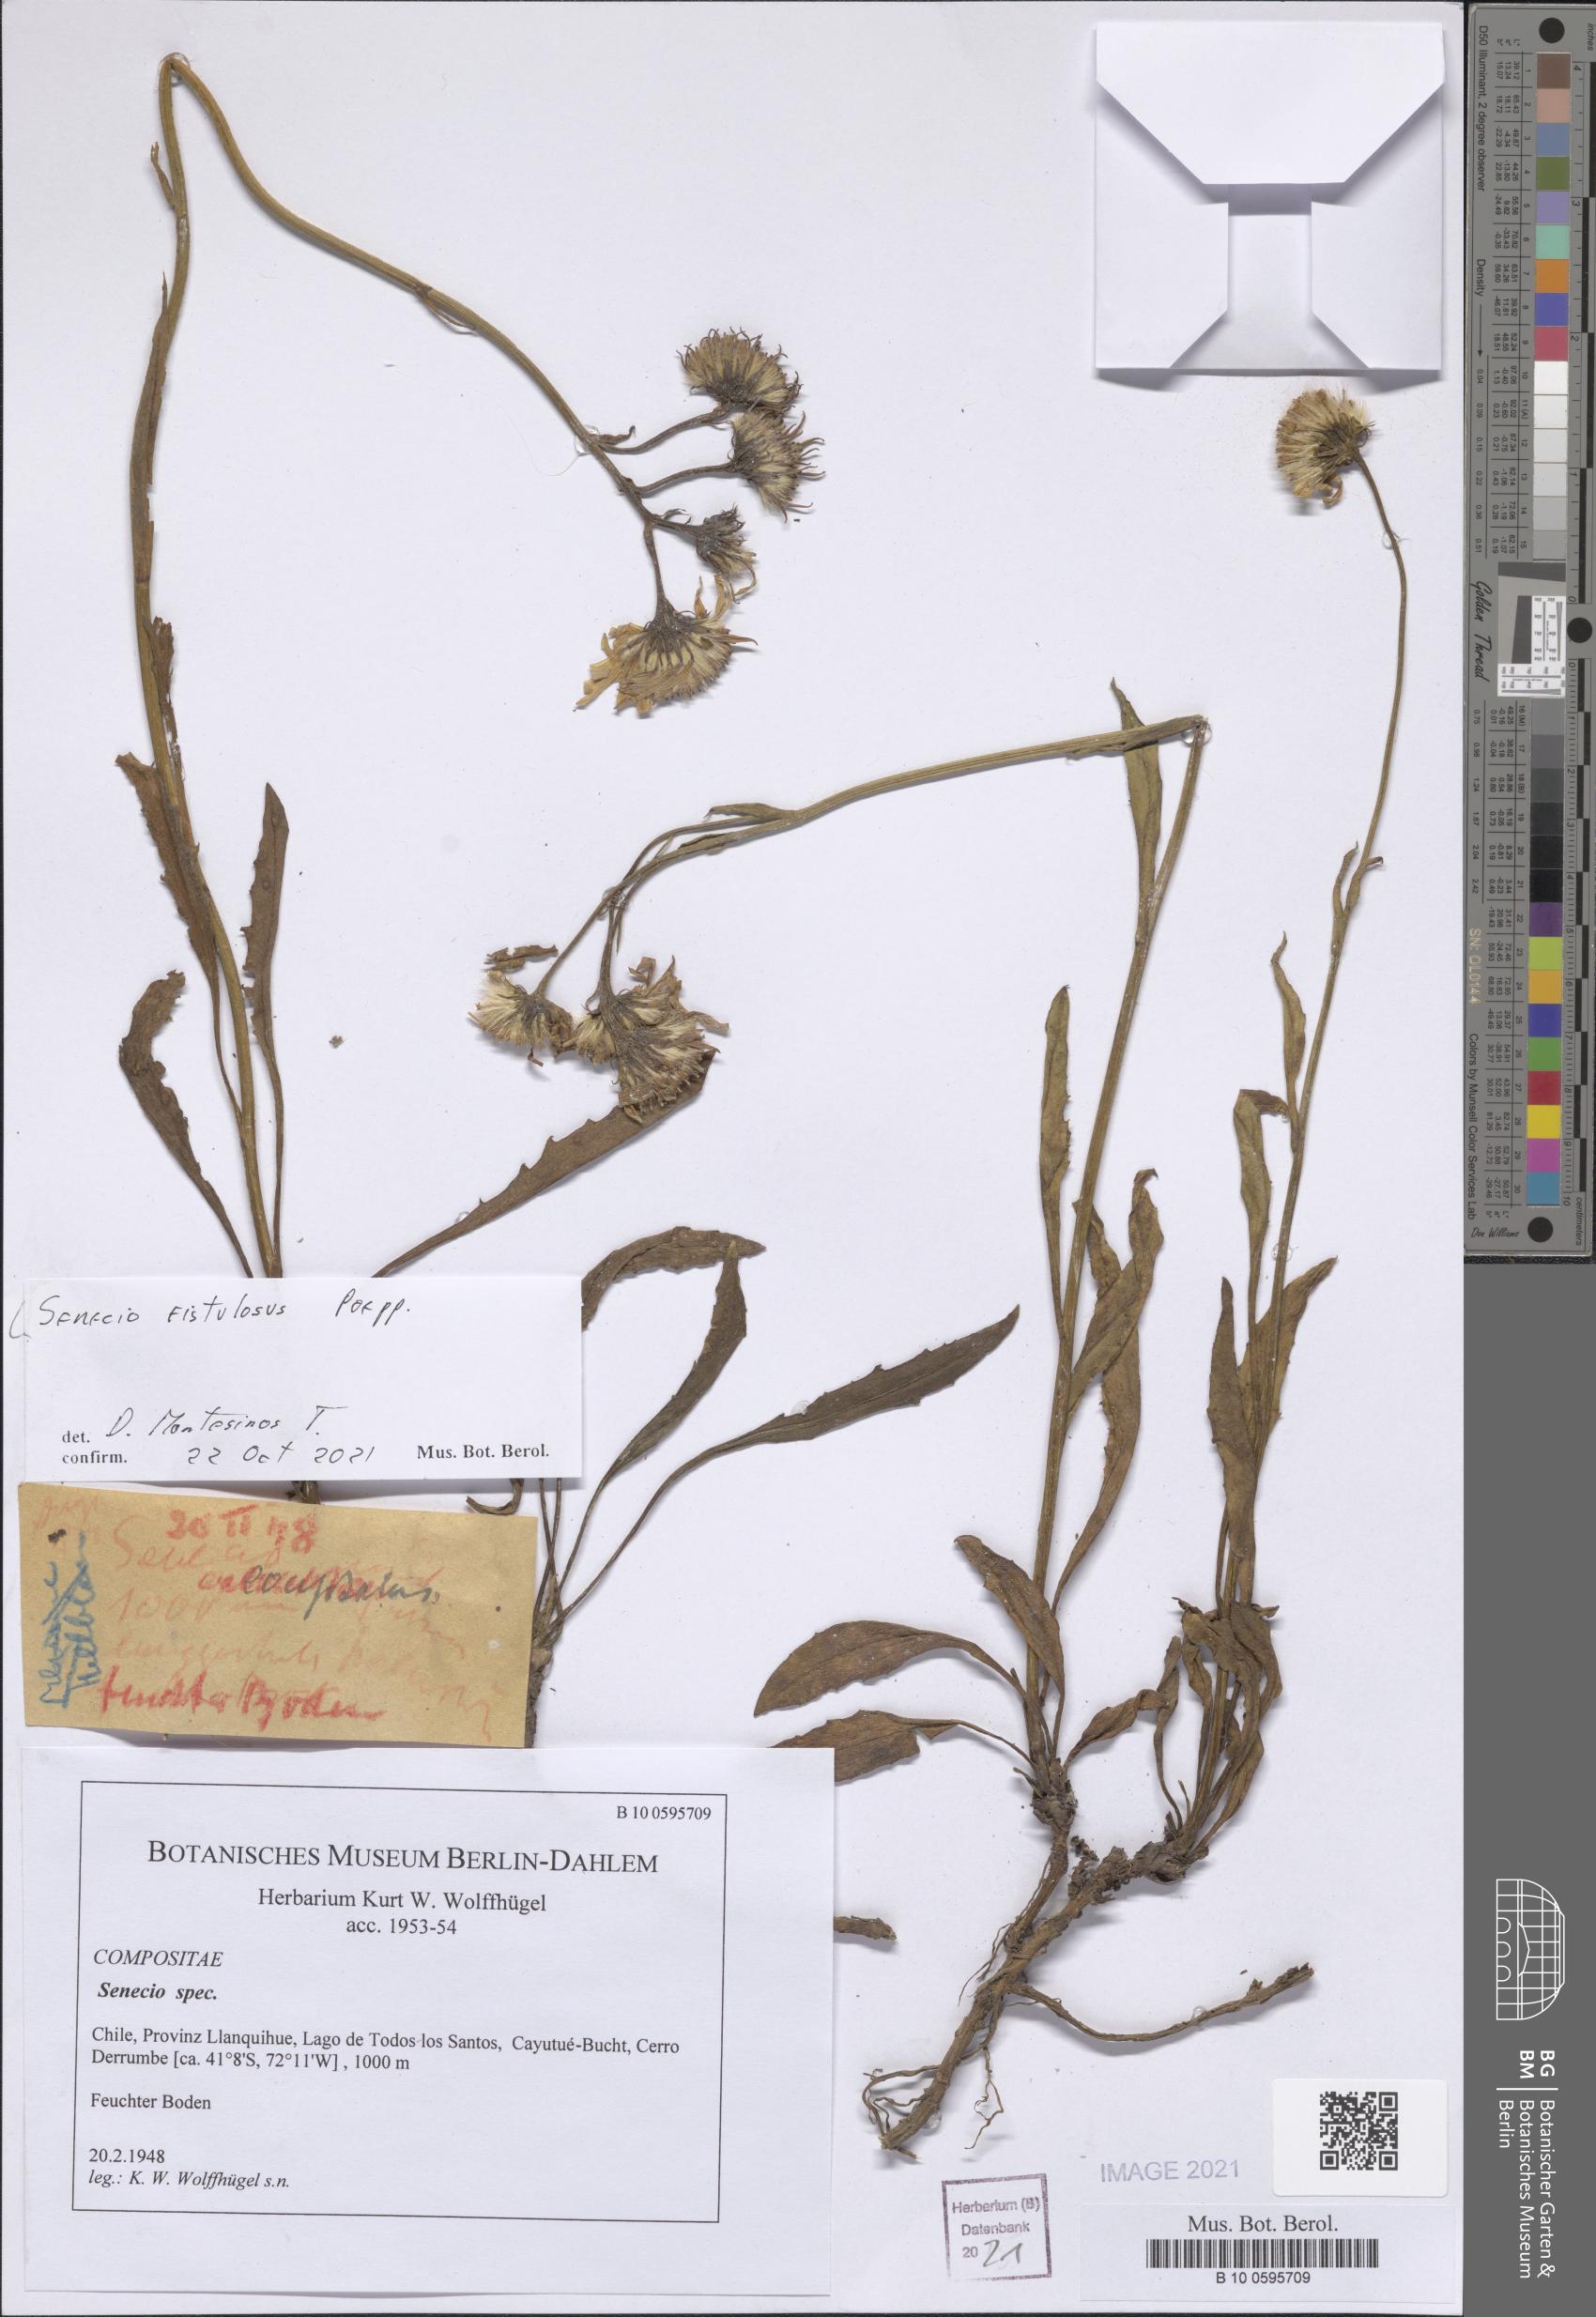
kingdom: Plantae
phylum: Tracheophyta
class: Magnoliopsida
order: Asterales
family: Asteraceae
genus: Senecio
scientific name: Senecio fistulosus
